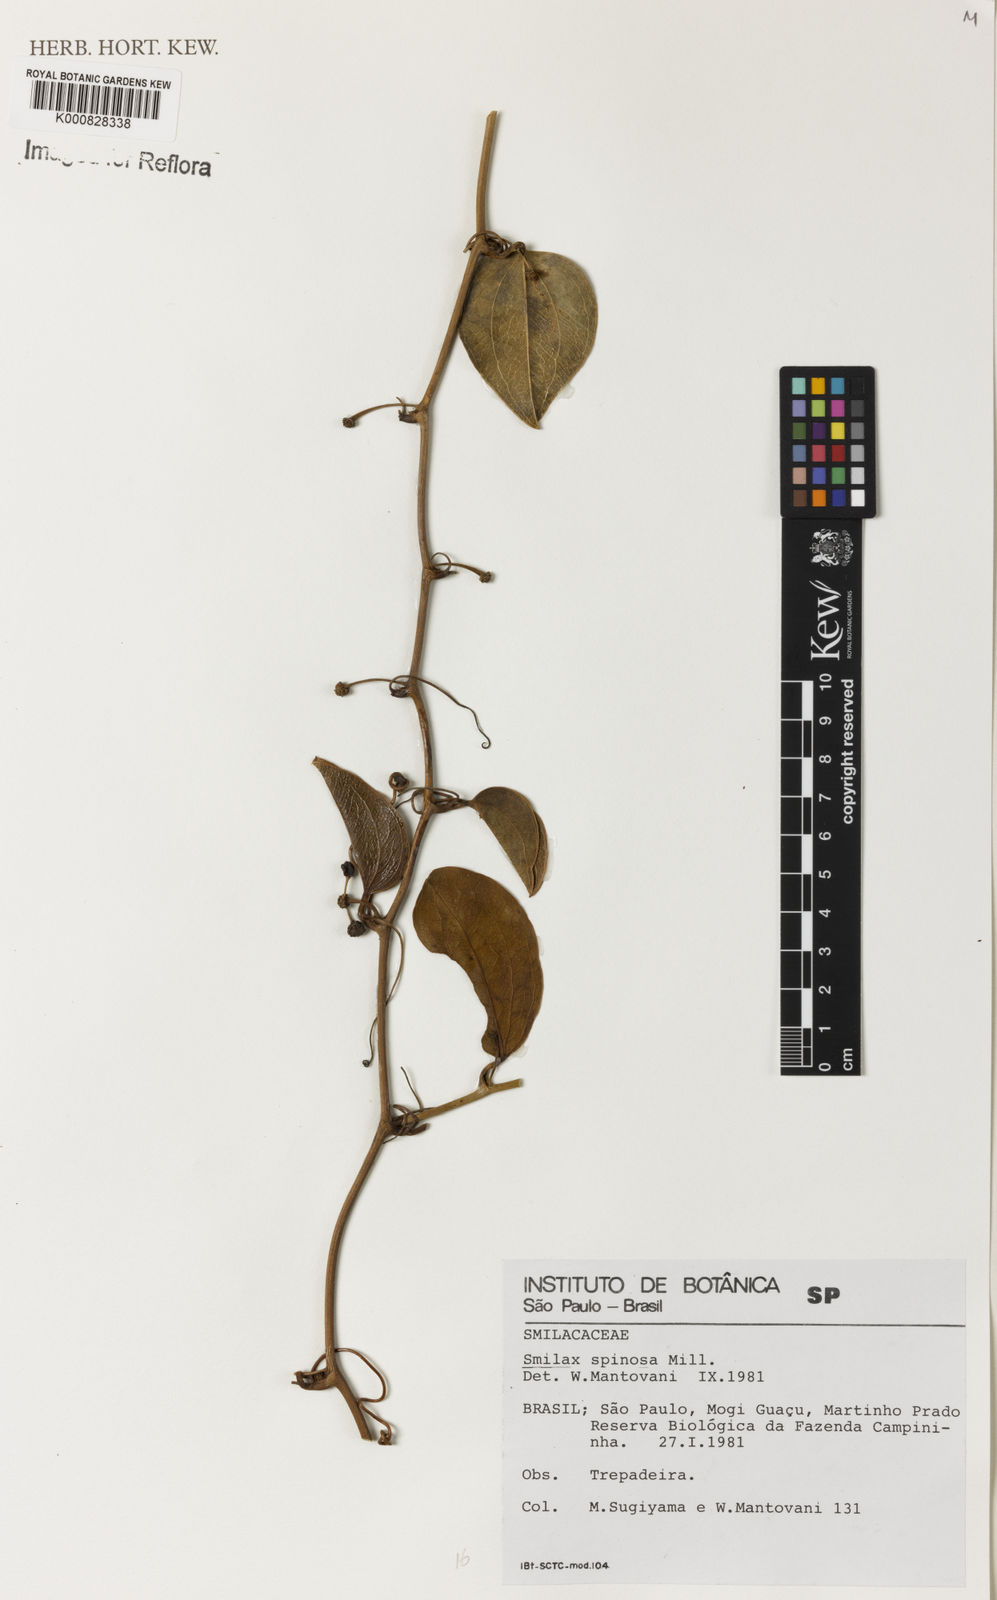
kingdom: Plantae
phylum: Tracheophyta
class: Liliopsida
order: Liliales
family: Smilacaceae
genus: Smilax
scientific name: Smilax spinosa
